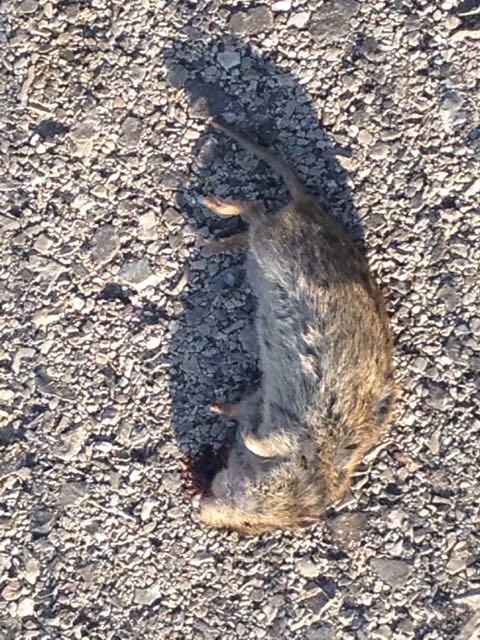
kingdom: Animalia
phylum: Chordata
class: Mammalia
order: Rodentia
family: Cricetidae
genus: Microtus
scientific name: Microtus
